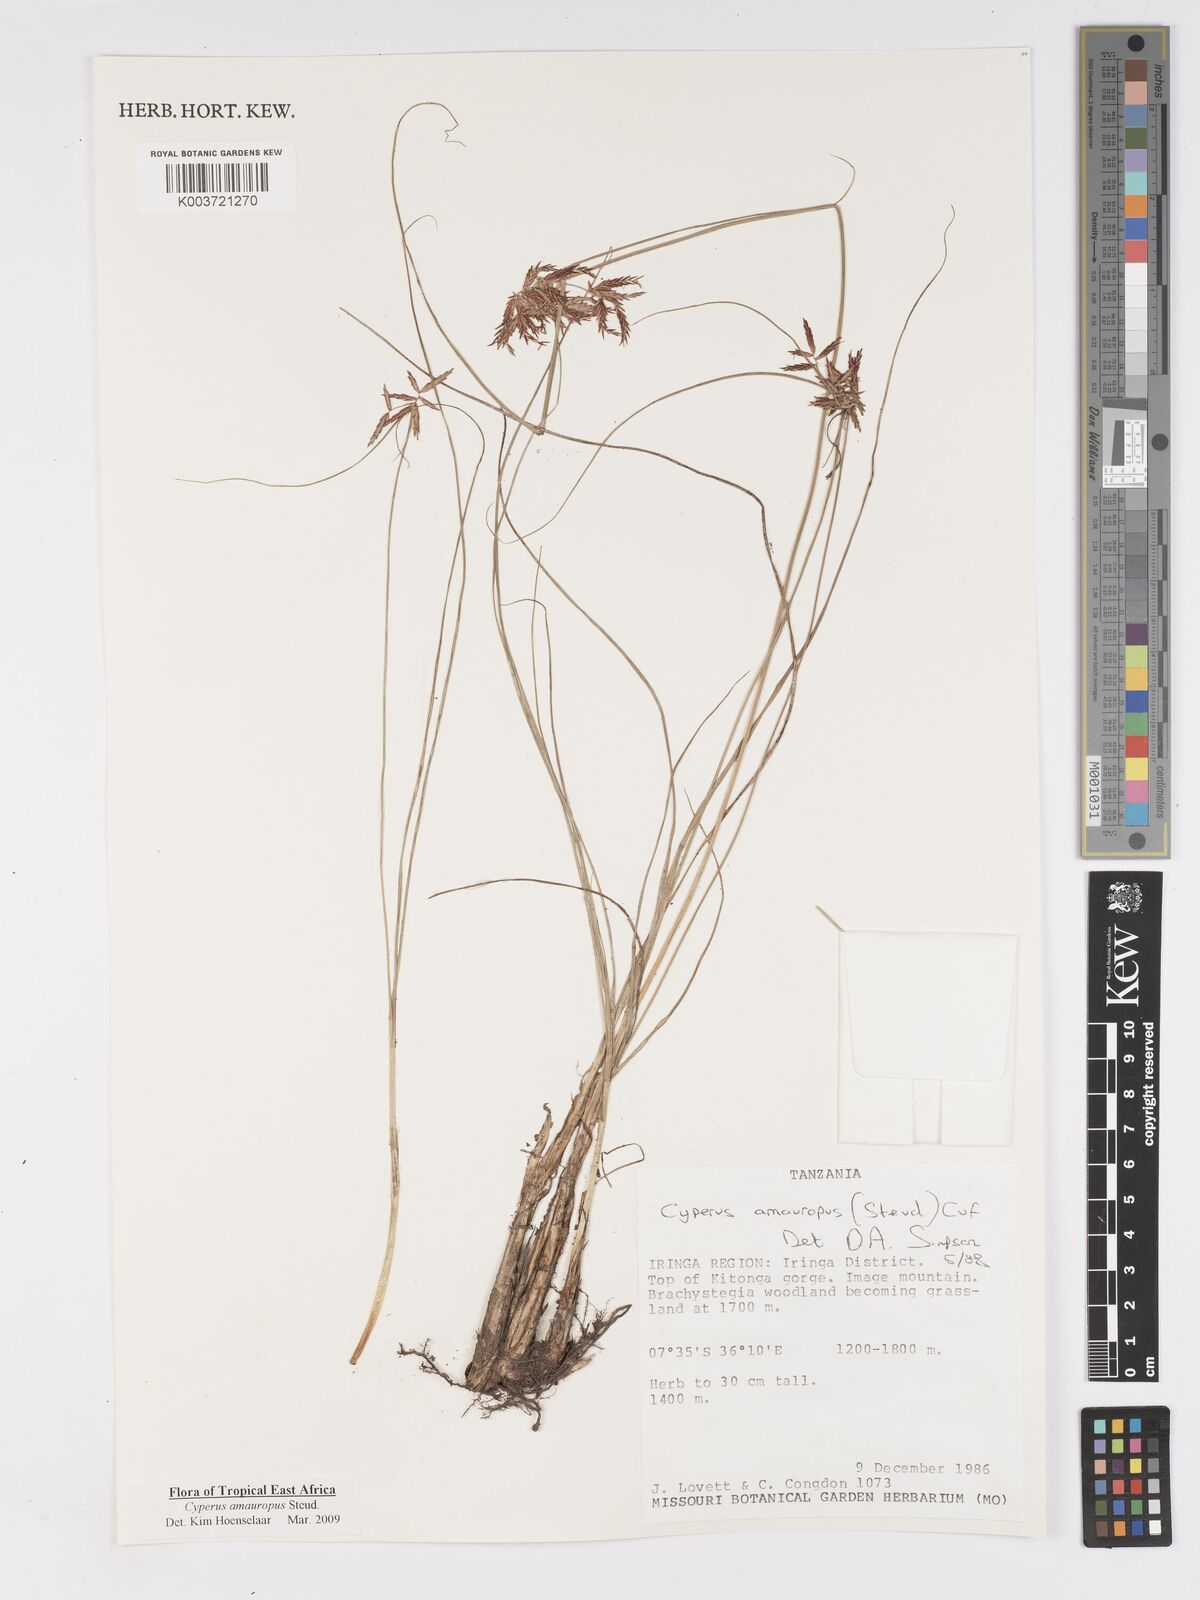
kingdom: Plantae
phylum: Tracheophyta
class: Liliopsida
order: Poales
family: Cyperaceae
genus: Cyperus
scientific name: Cyperus amauropus
